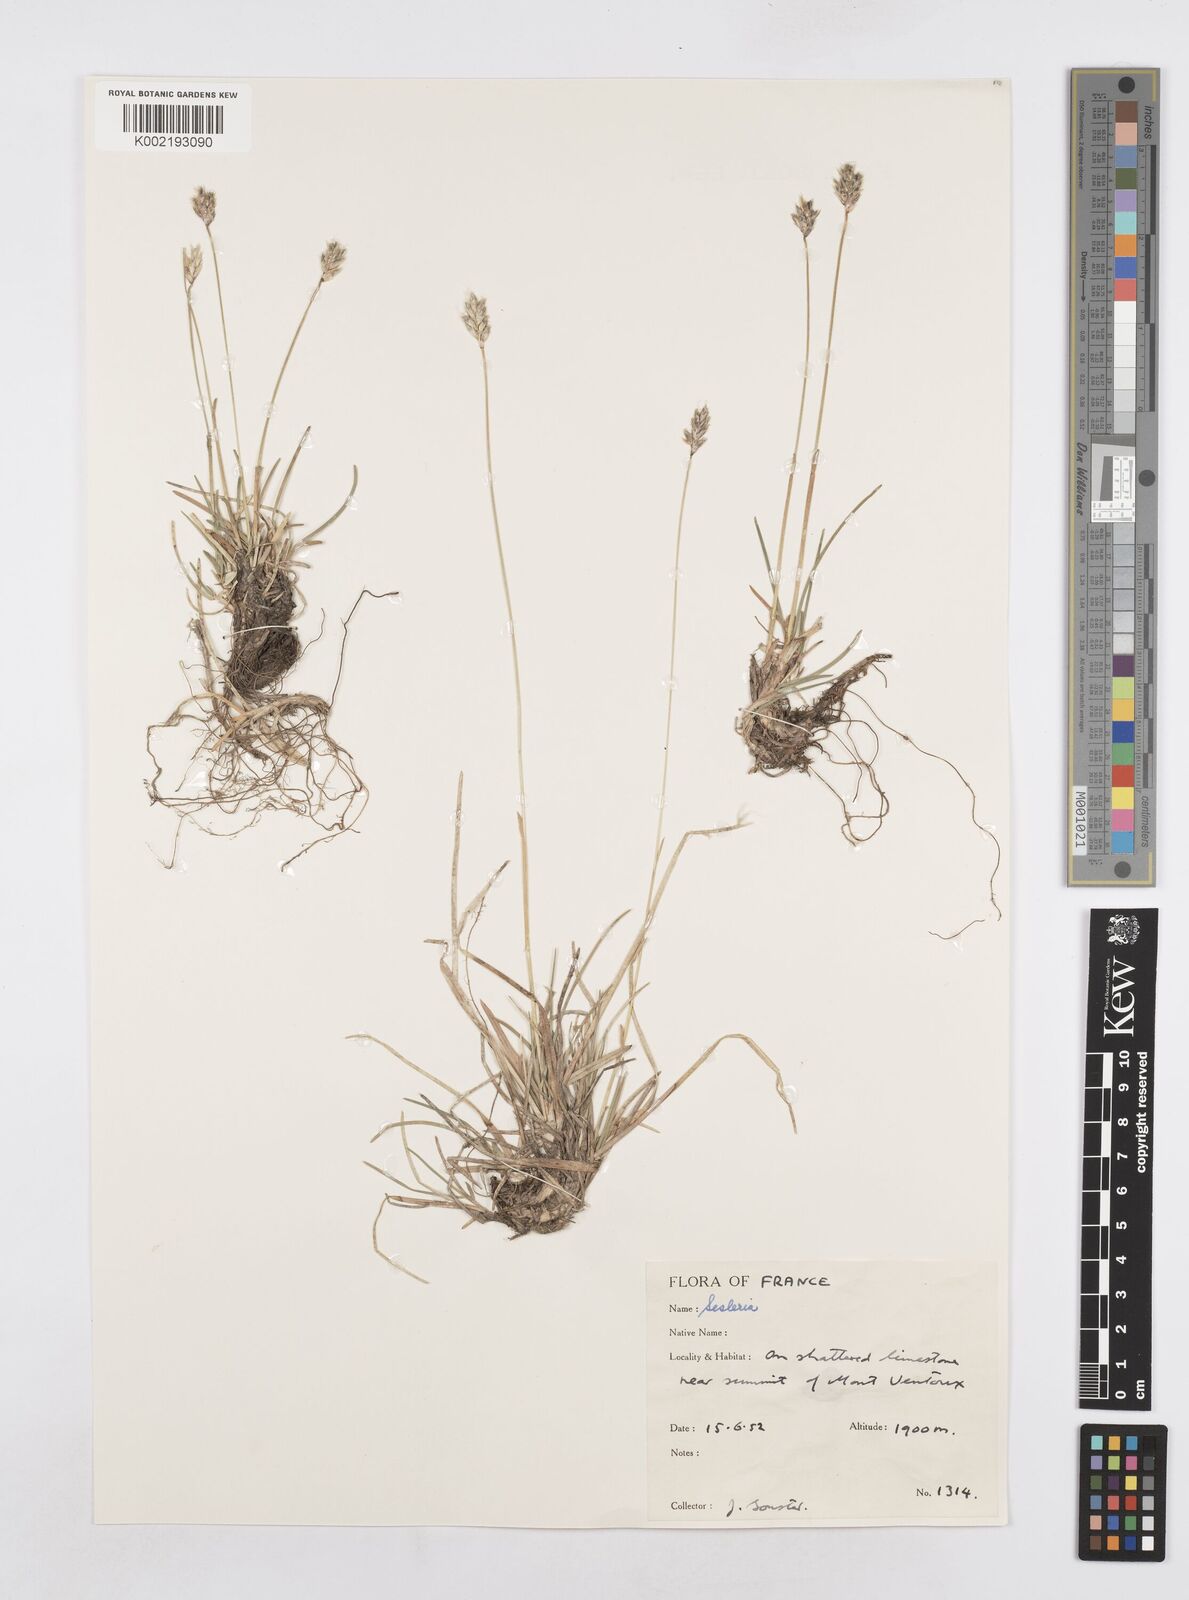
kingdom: Plantae
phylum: Tracheophyta
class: Liliopsida
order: Poales
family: Poaceae
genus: Sesleria
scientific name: Sesleria
